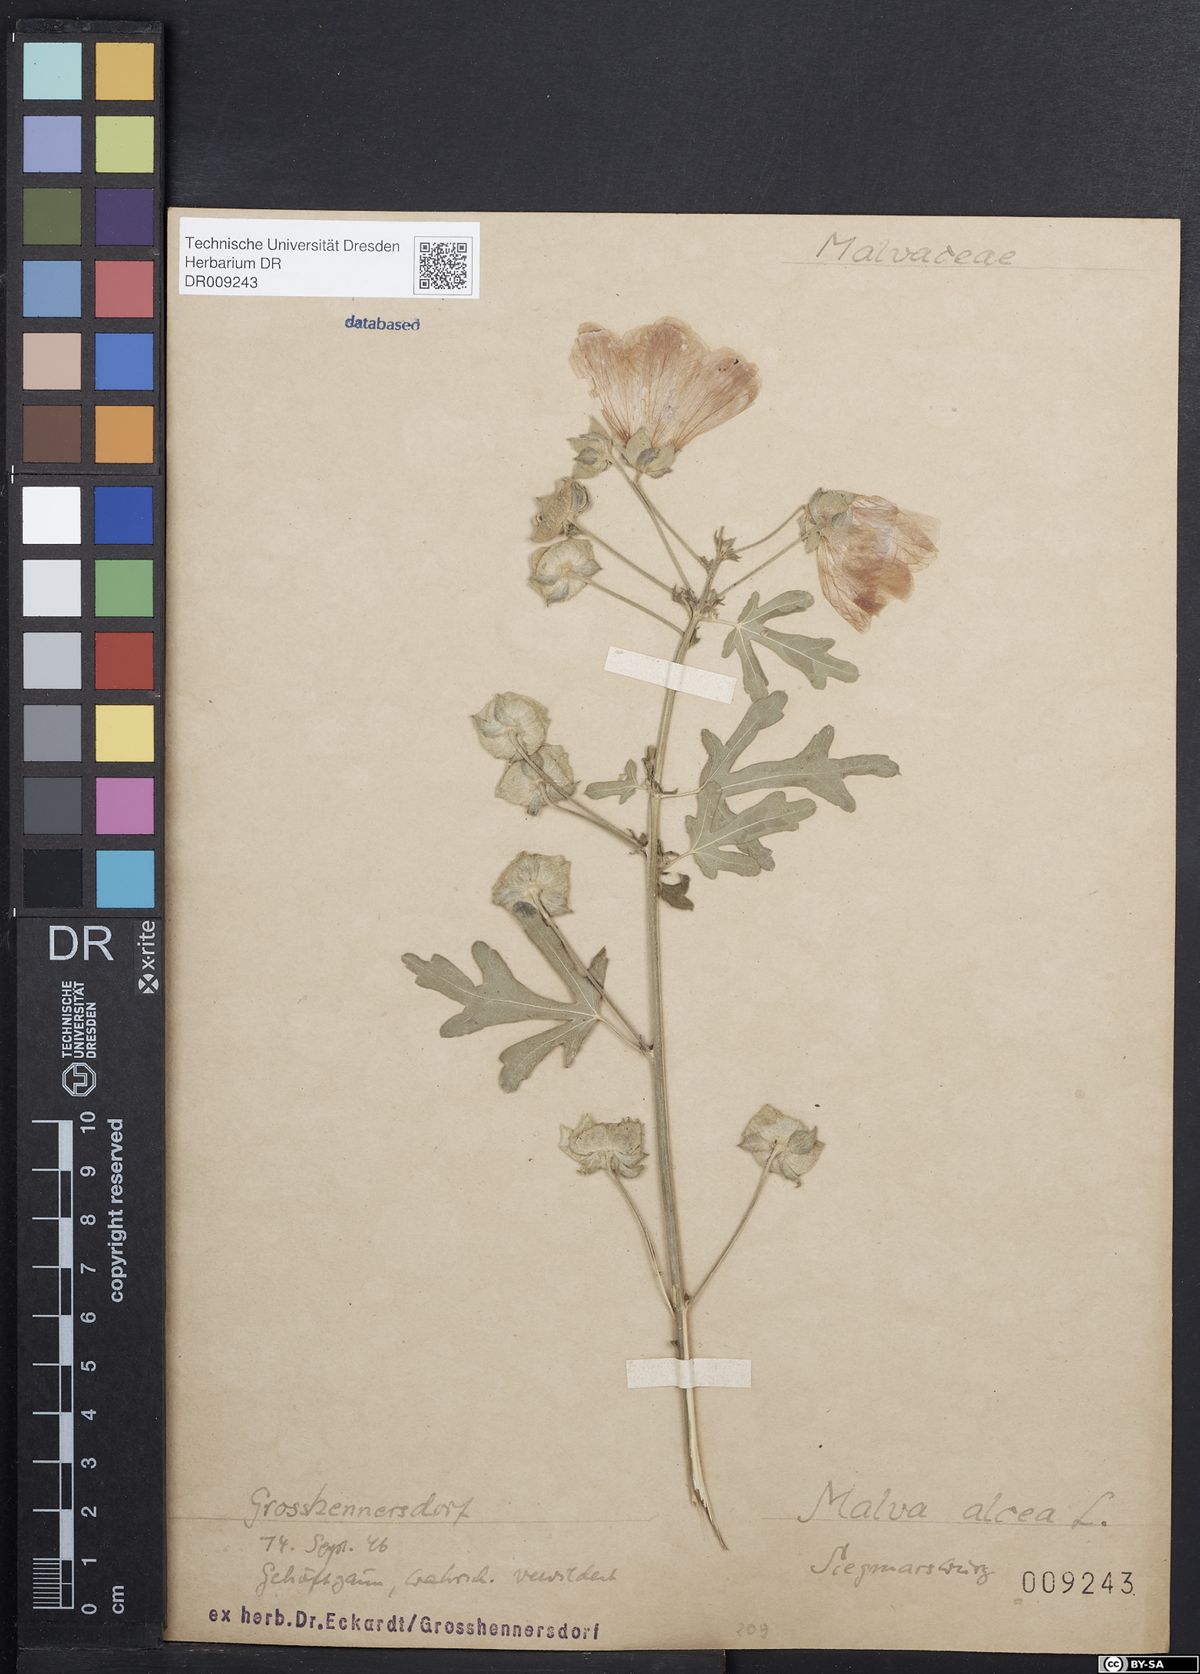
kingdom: Plantae
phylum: Tracheophyta
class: Magnoliopsida
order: Malvales
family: Malvaceae
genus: Malva
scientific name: Malva alcea
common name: Greater musk-mallow
